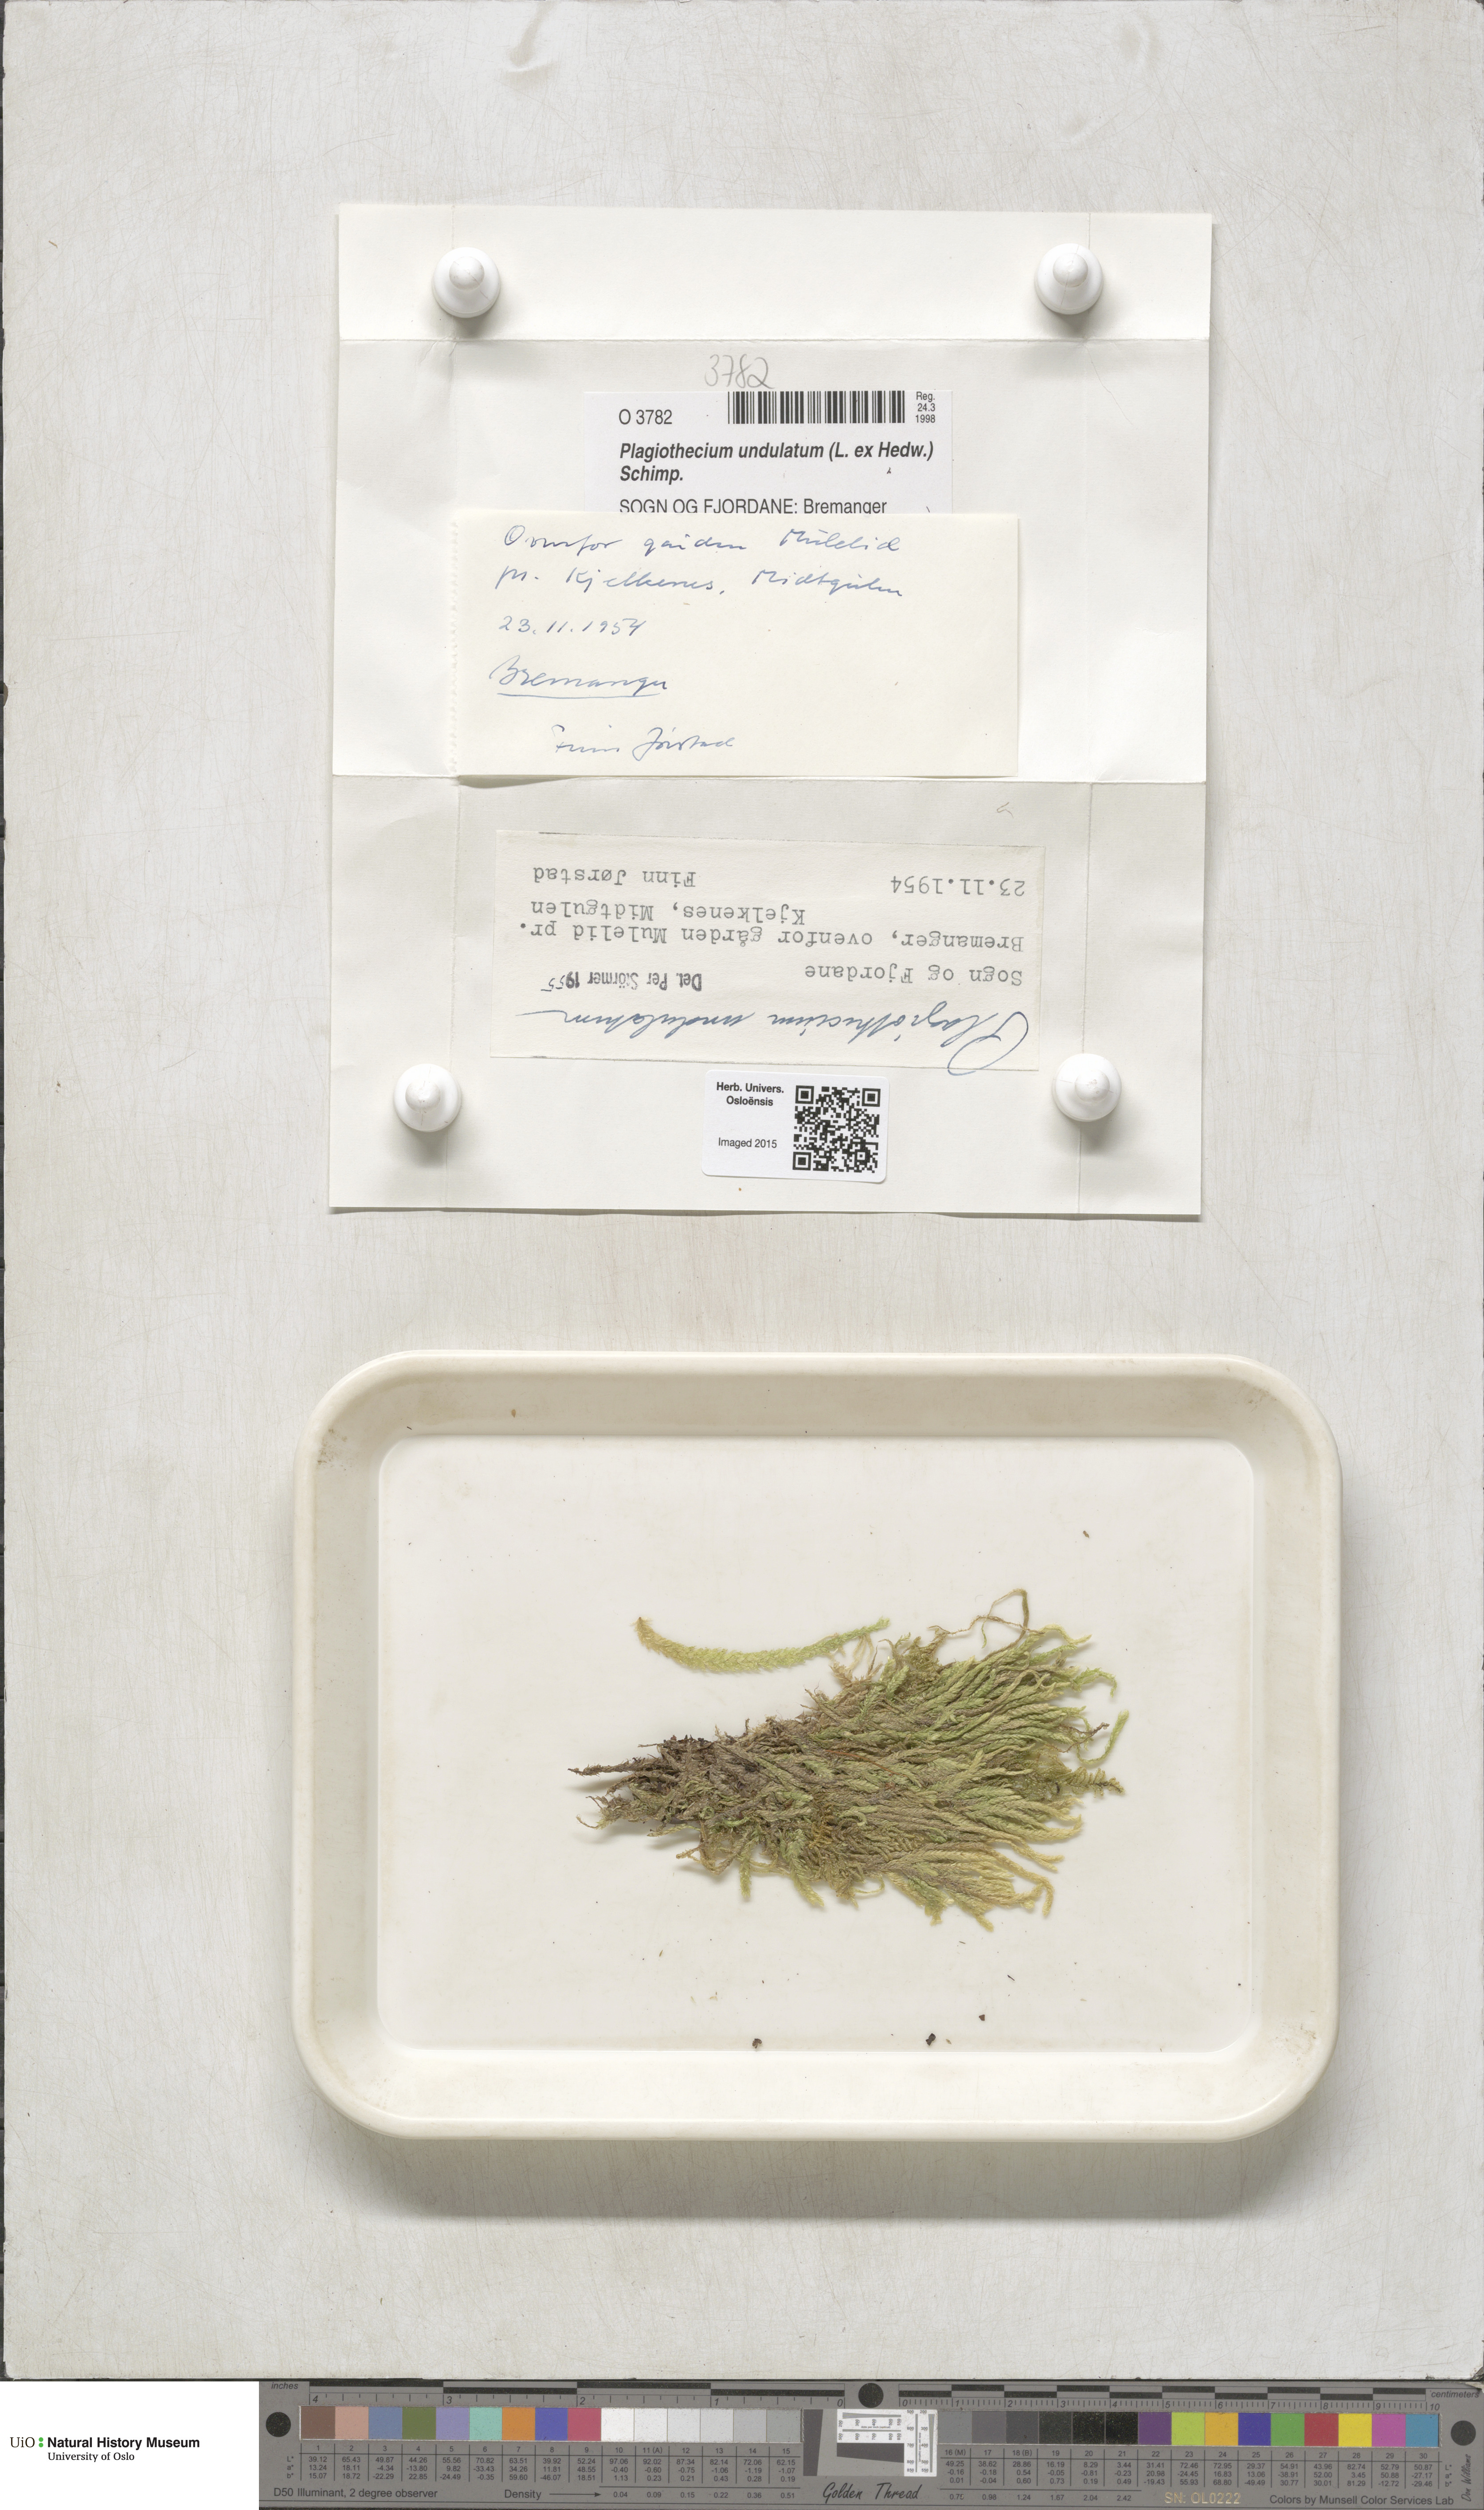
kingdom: Plantae
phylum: Bryophyta
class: Bryopsida
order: Hypnales
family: Plagiotheciaceae
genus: Plagiothecium
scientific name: Plagiothecium undulatum
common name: Waved silk-moss
